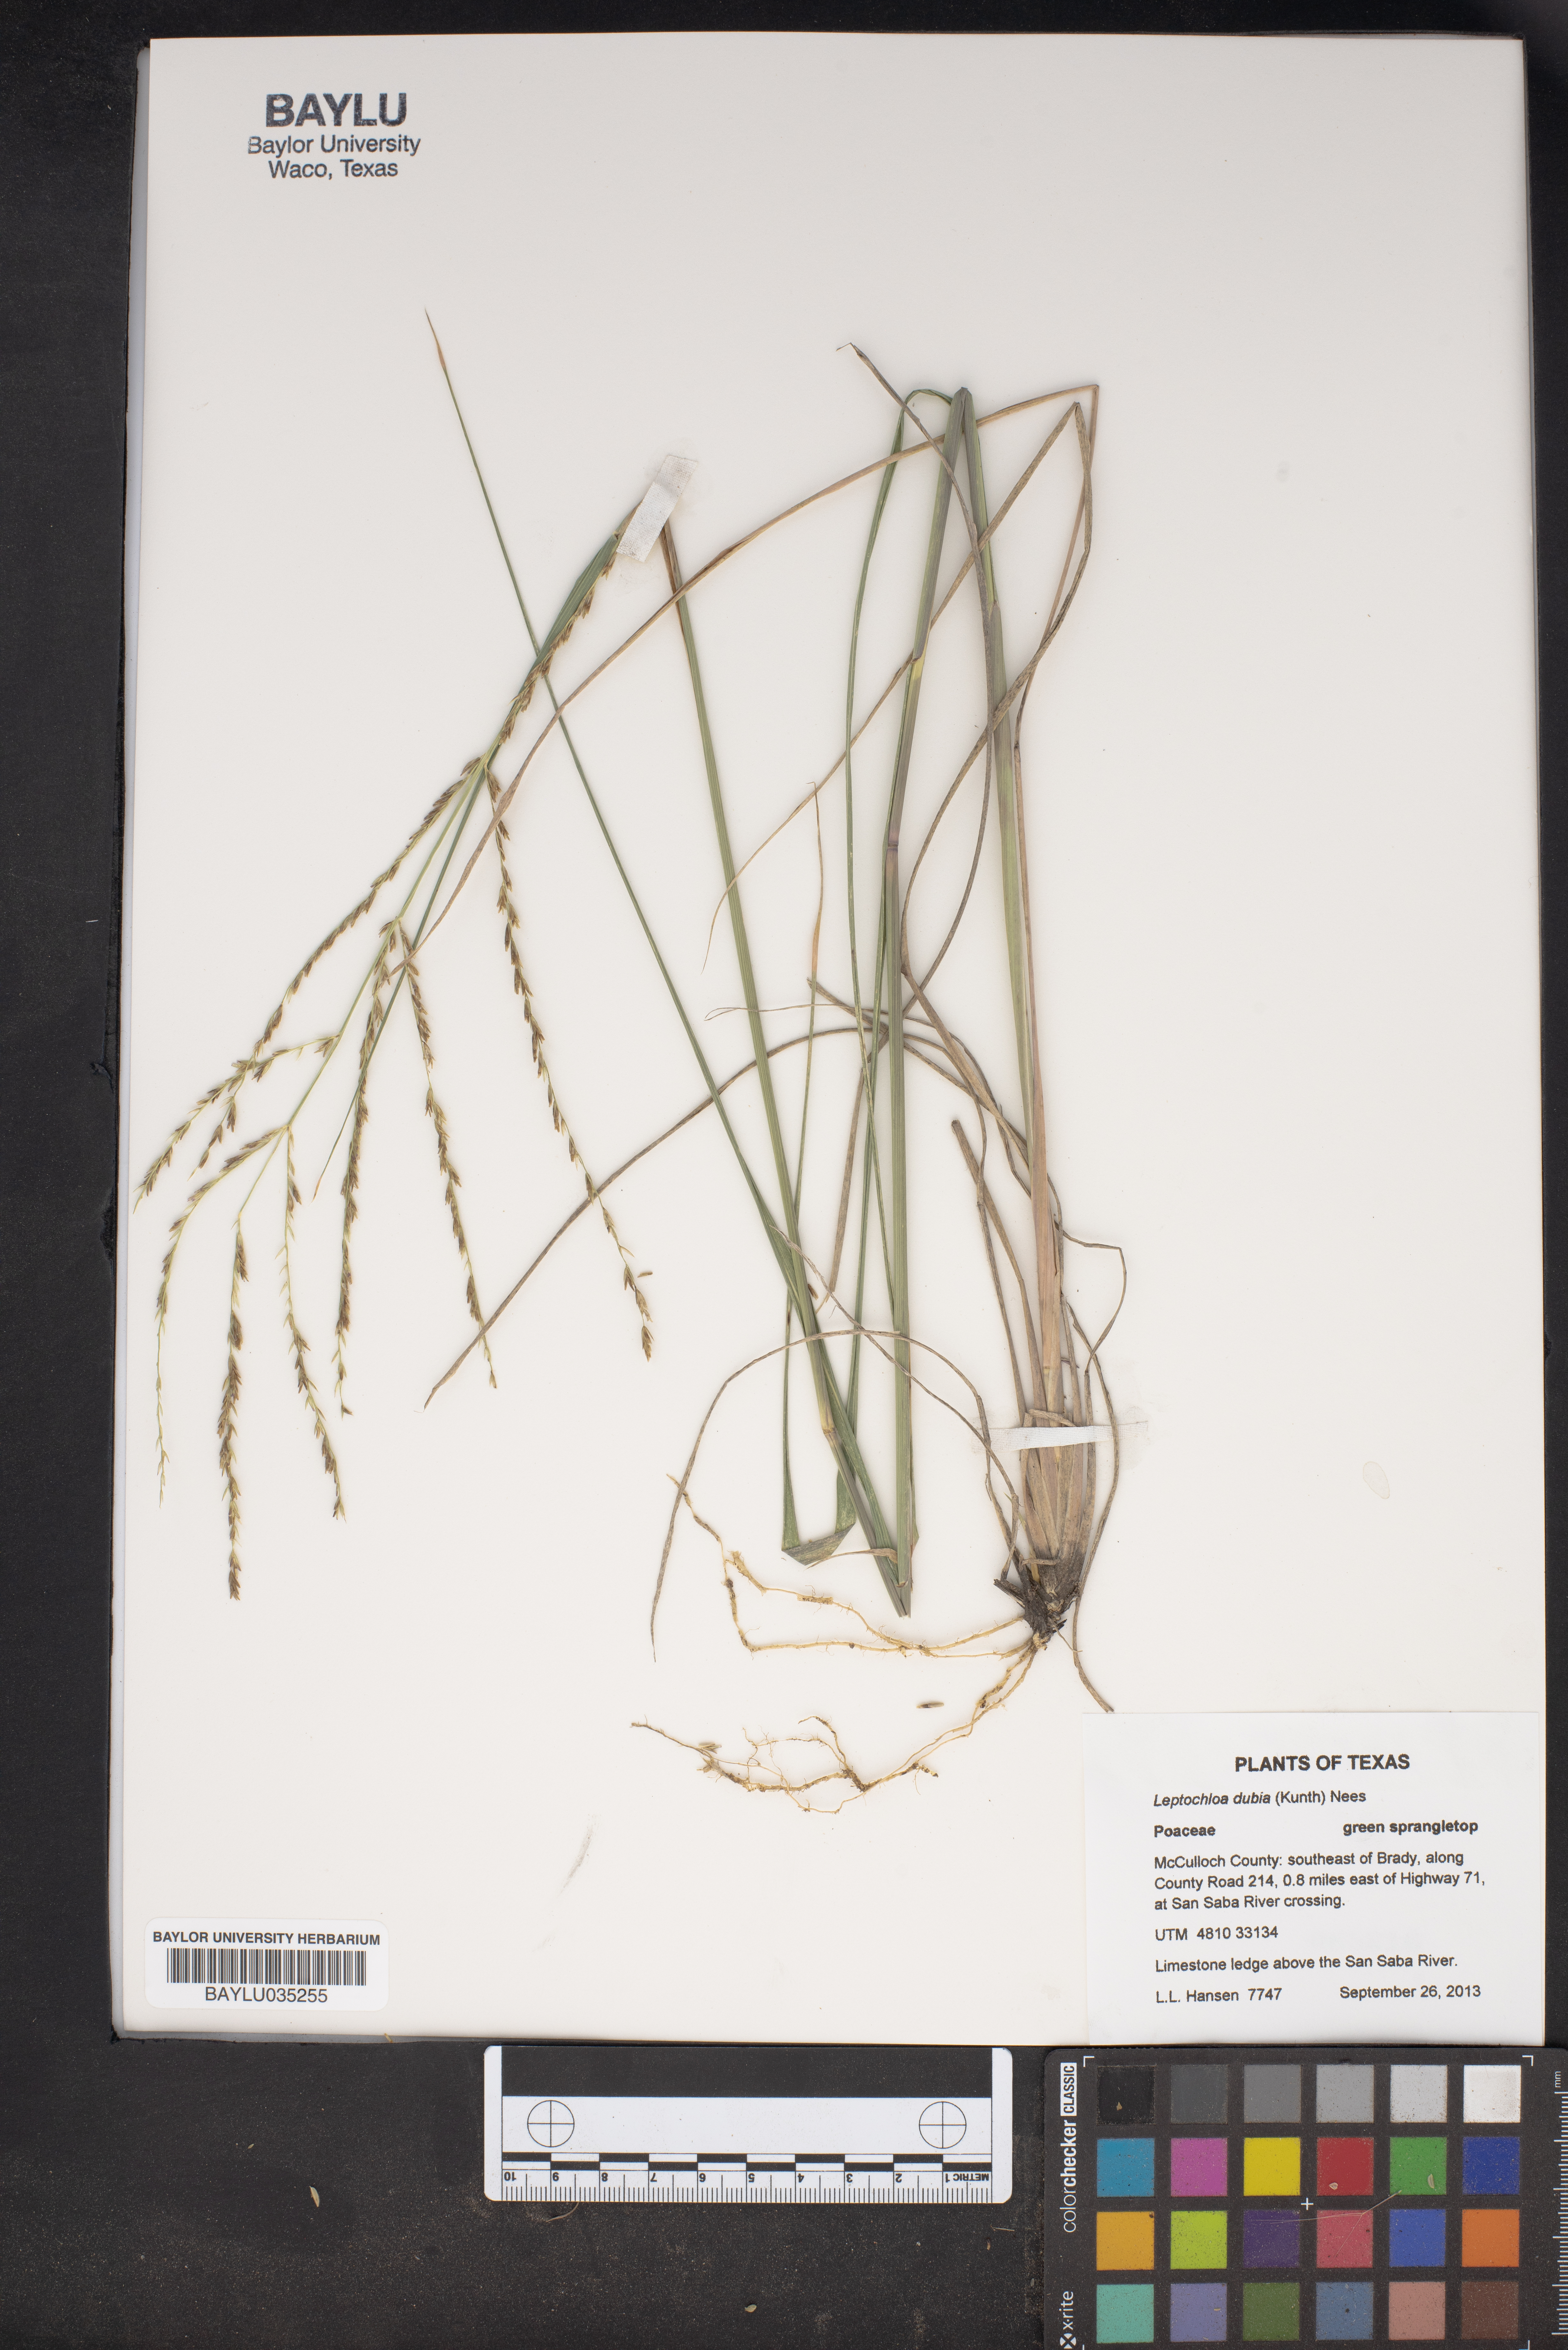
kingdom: Plantae
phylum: Tracheophyta
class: Liliopsida
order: Poales
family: Poaceae
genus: Disakisperma
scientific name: Disakisperma dubium
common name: Green sprangletop
